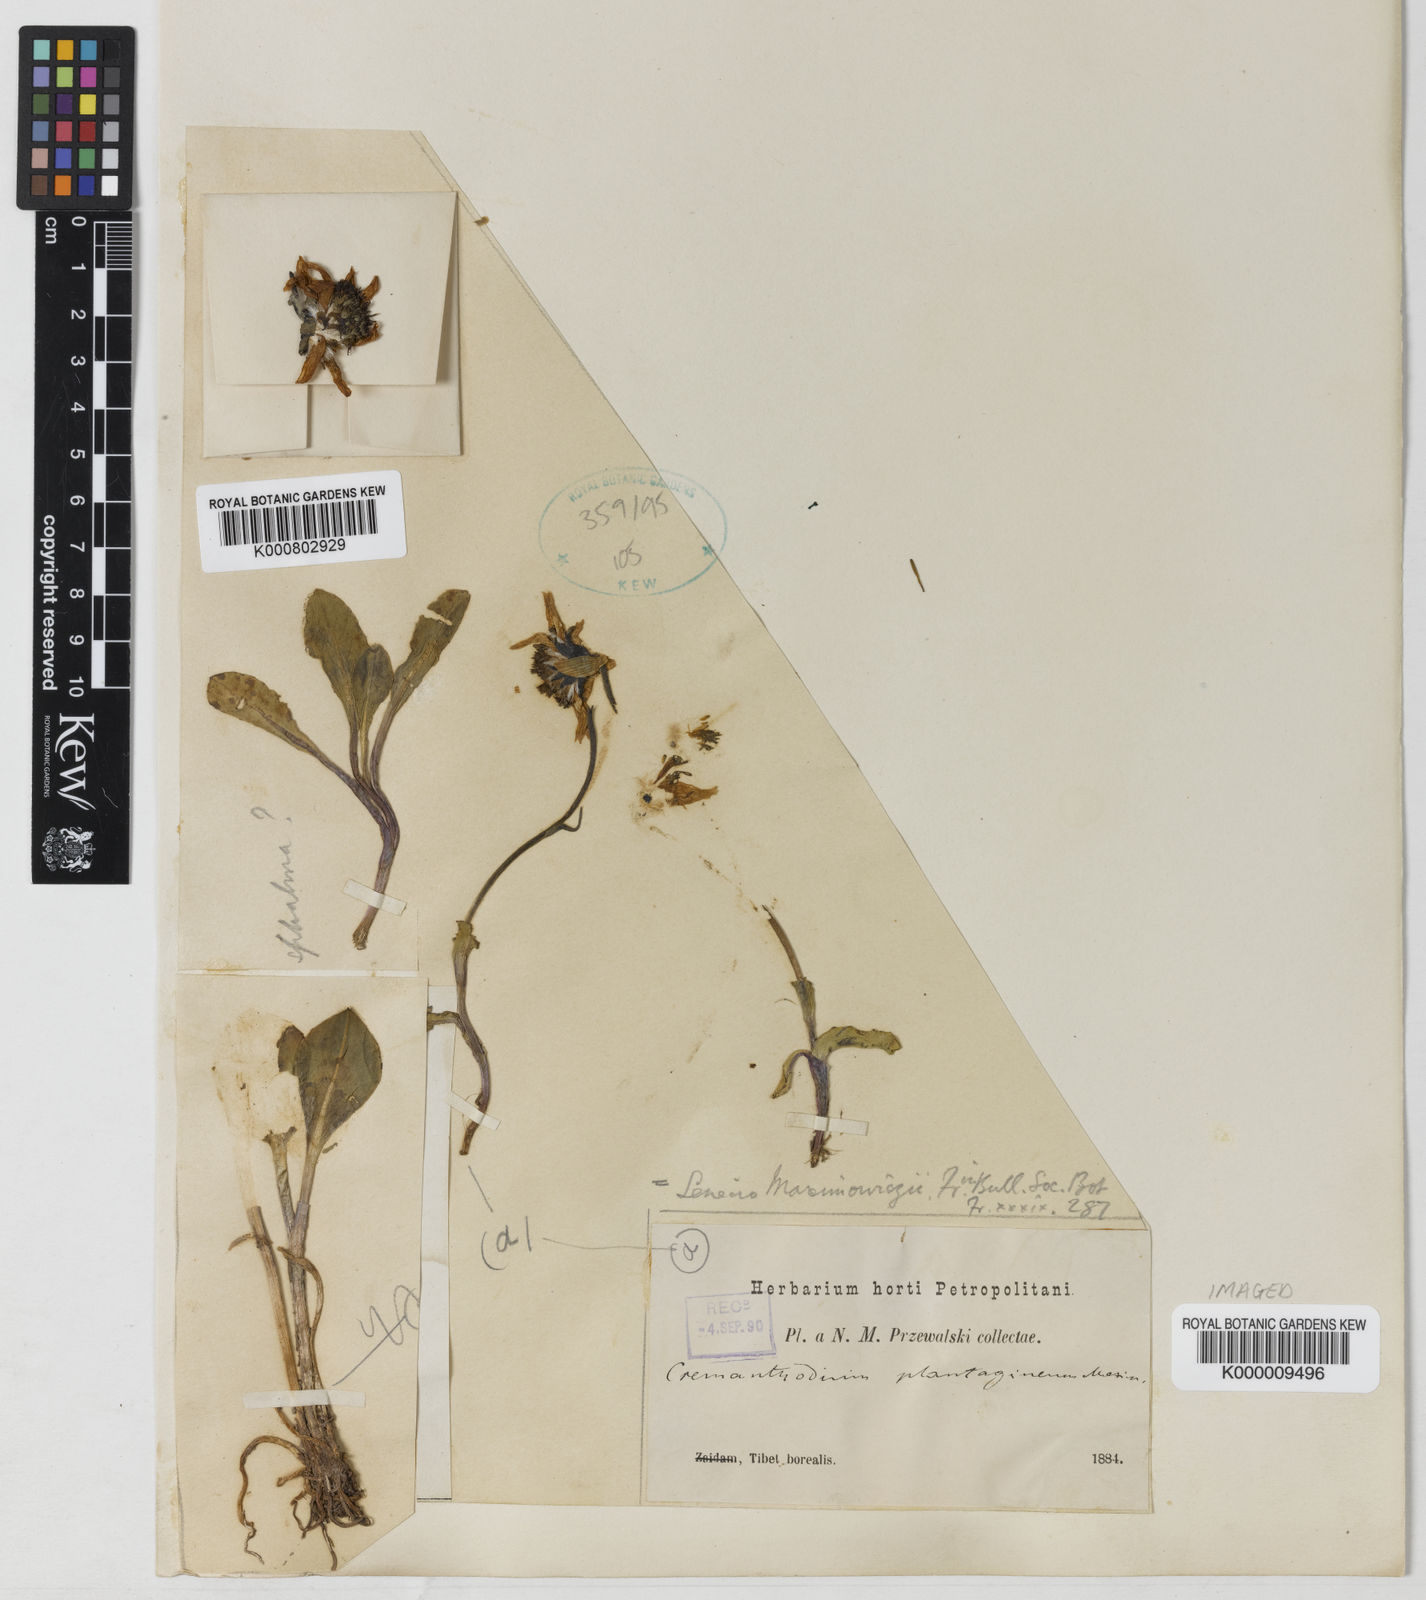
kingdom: Plantae
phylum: Tracheophyta
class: Magnoliopsida
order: Asterales
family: Asteraceae
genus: Cremanthodium
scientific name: Cremanthodium ellisii
